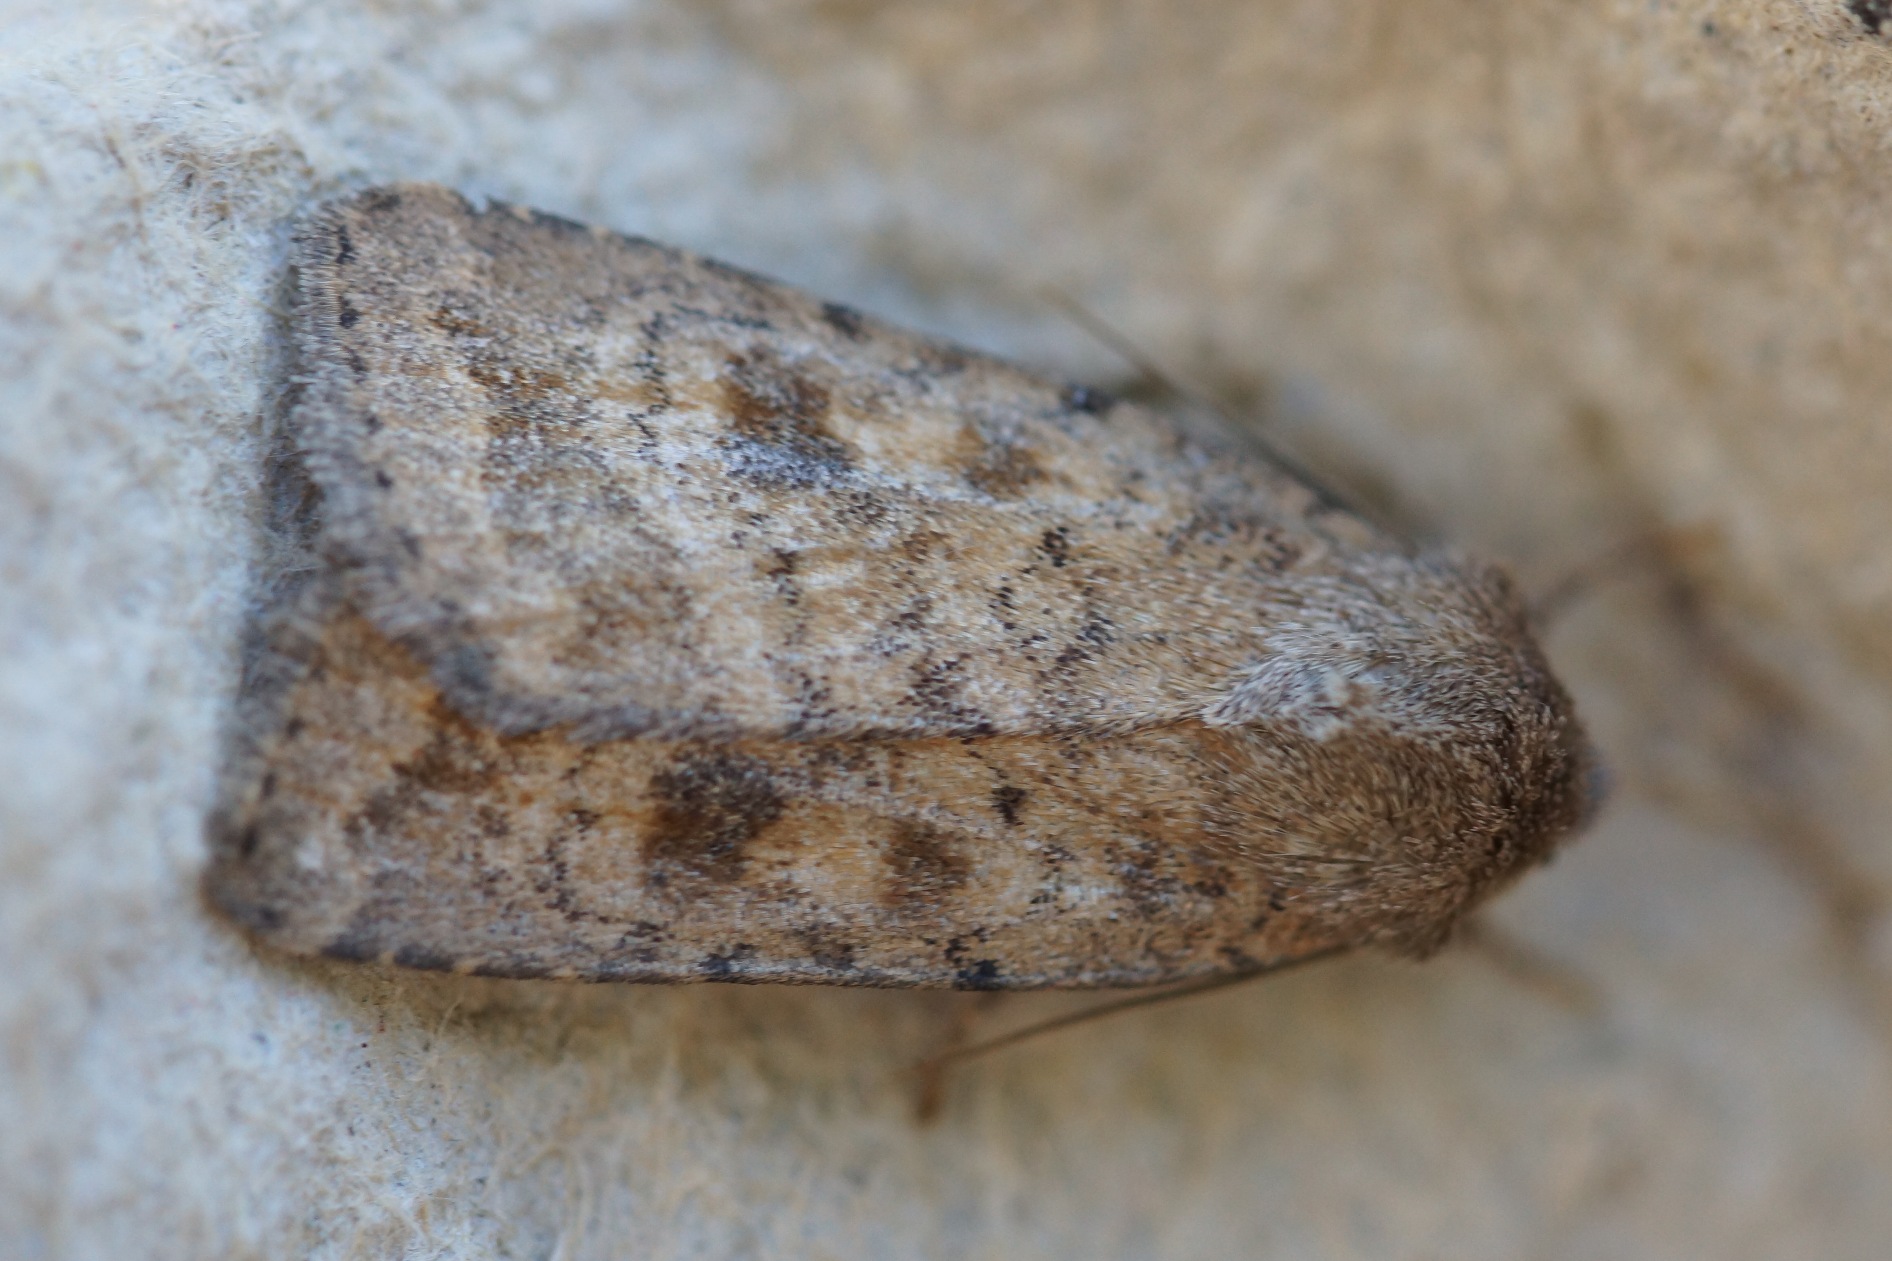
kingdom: Animalia
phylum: Arthropoda
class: Insecta
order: Lepidoptera
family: Noctuidae
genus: Caradrina
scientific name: Caradrina morpheus
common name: Drømme-mus
